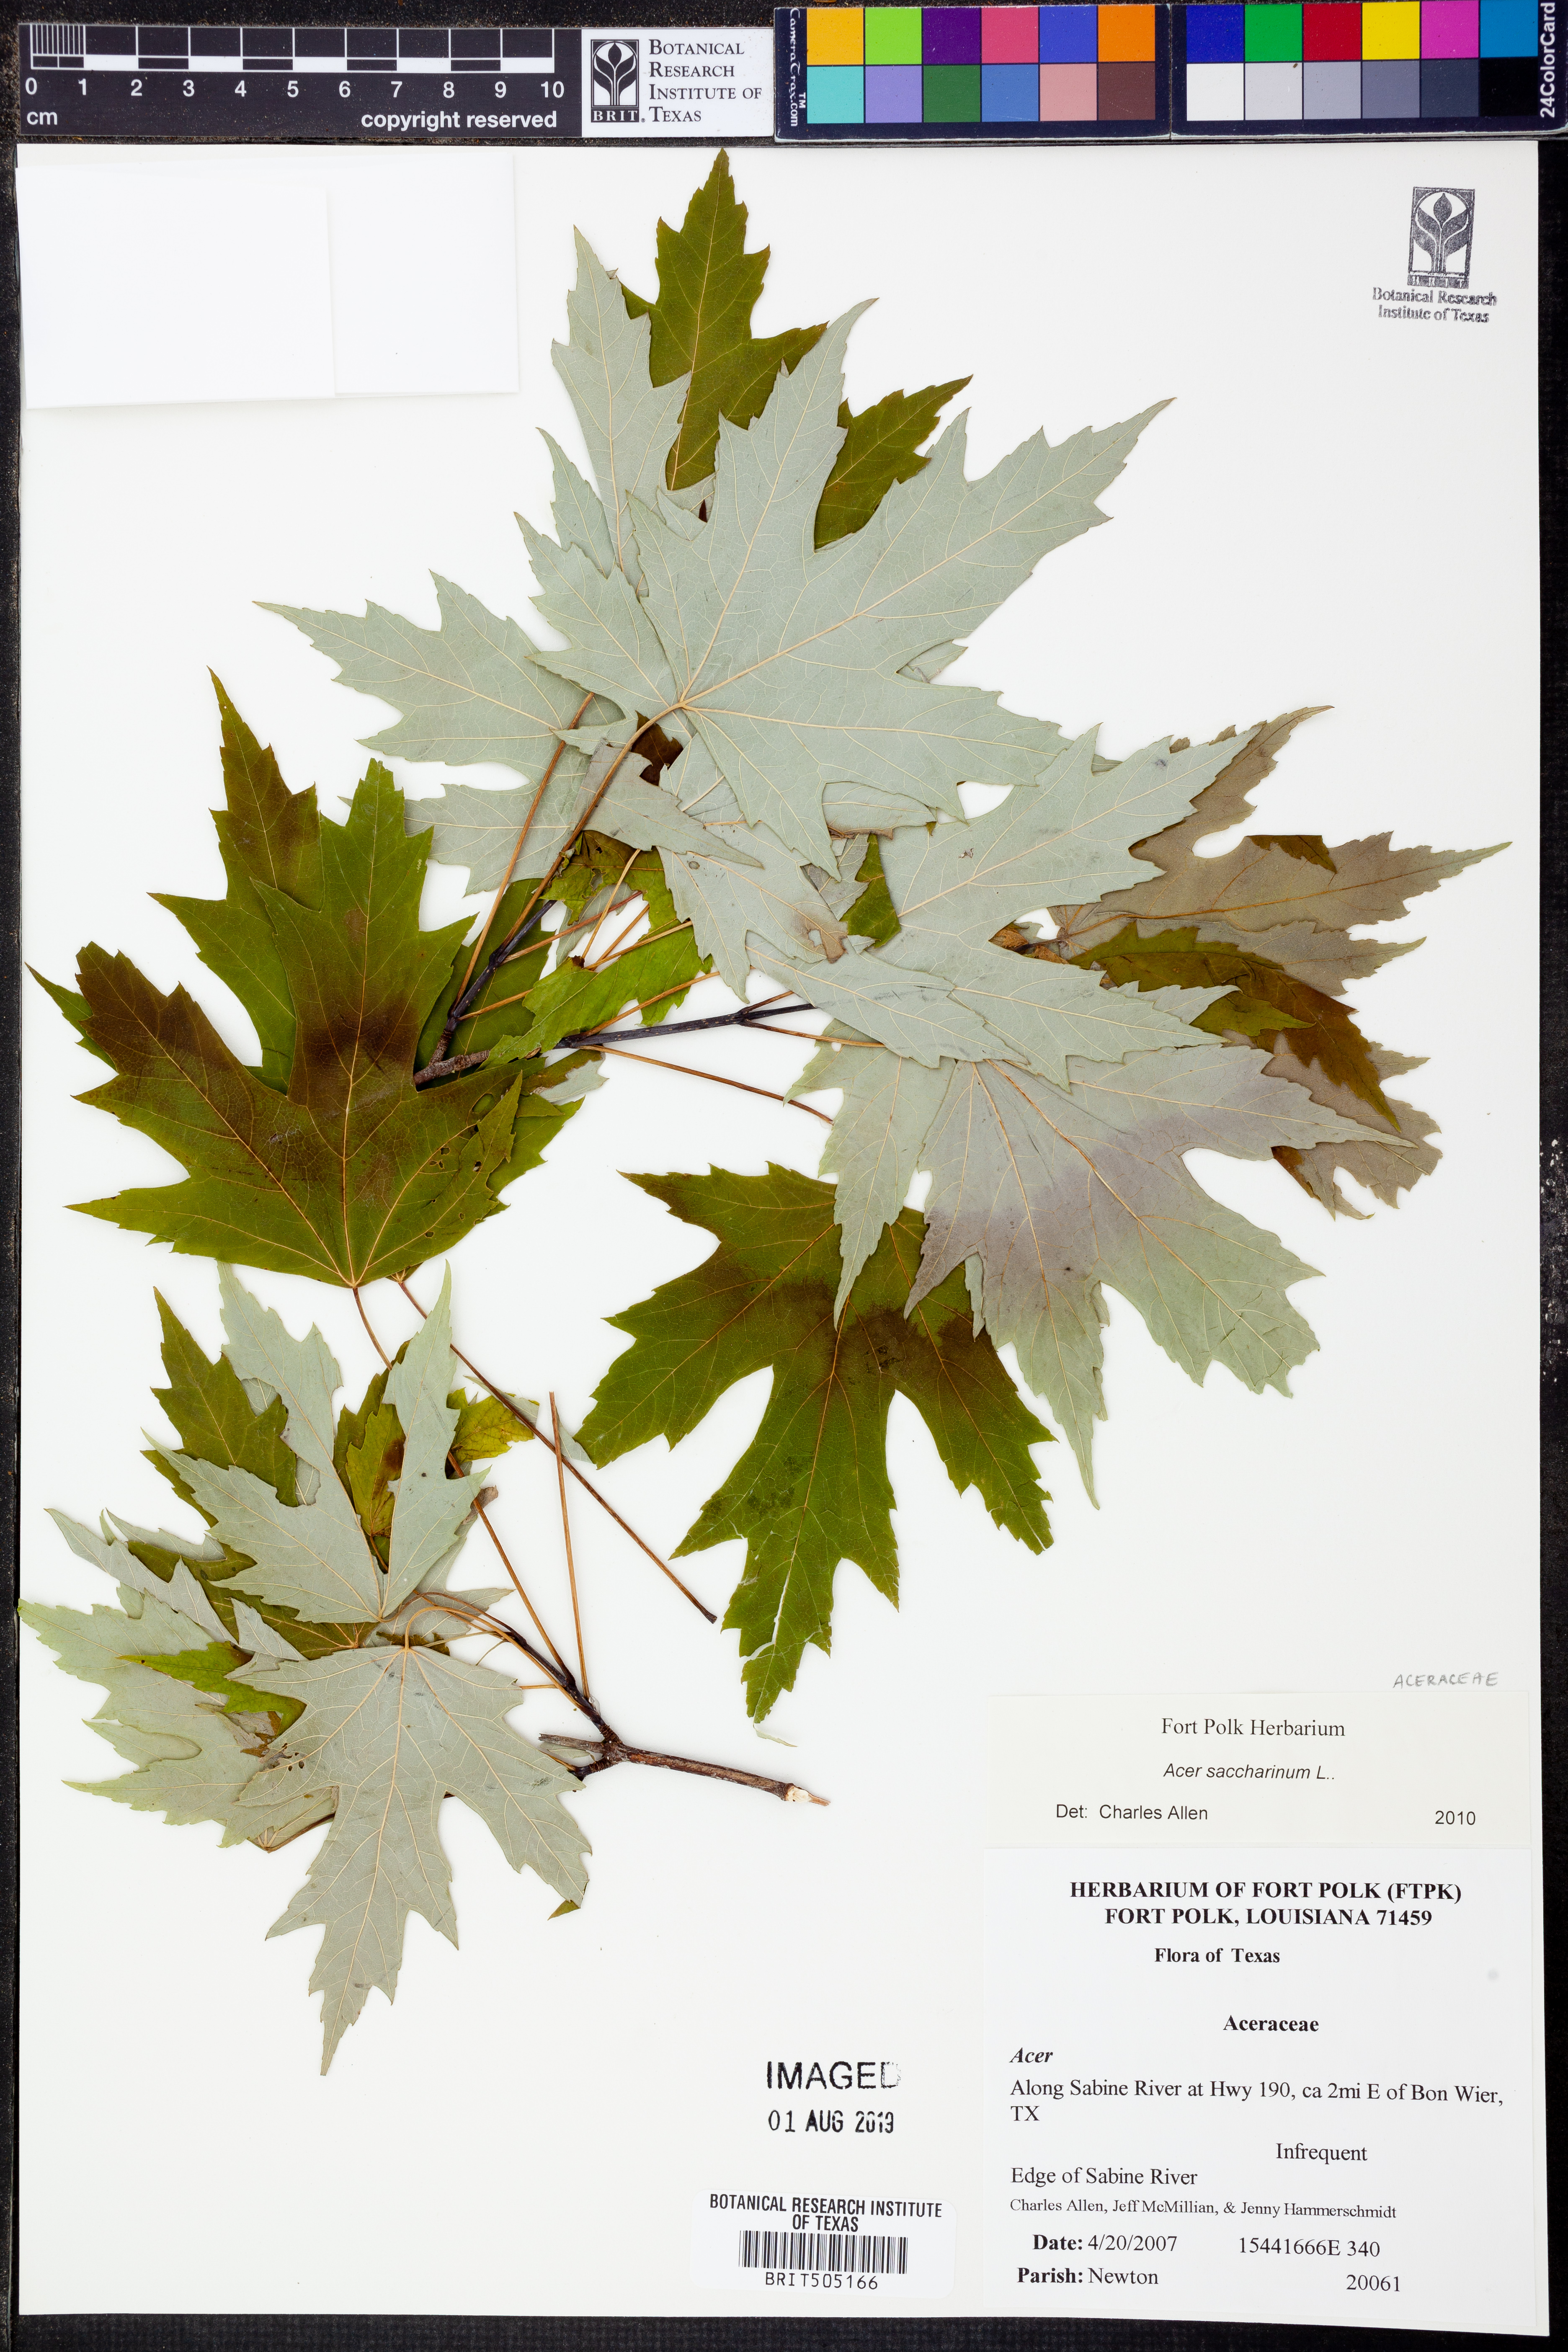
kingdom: Plantae
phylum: Tracheophyta
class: Magnoliopsida
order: Sapindales
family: Sapindaceae
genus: Acer
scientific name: Acer saccharinum
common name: Silver maple
